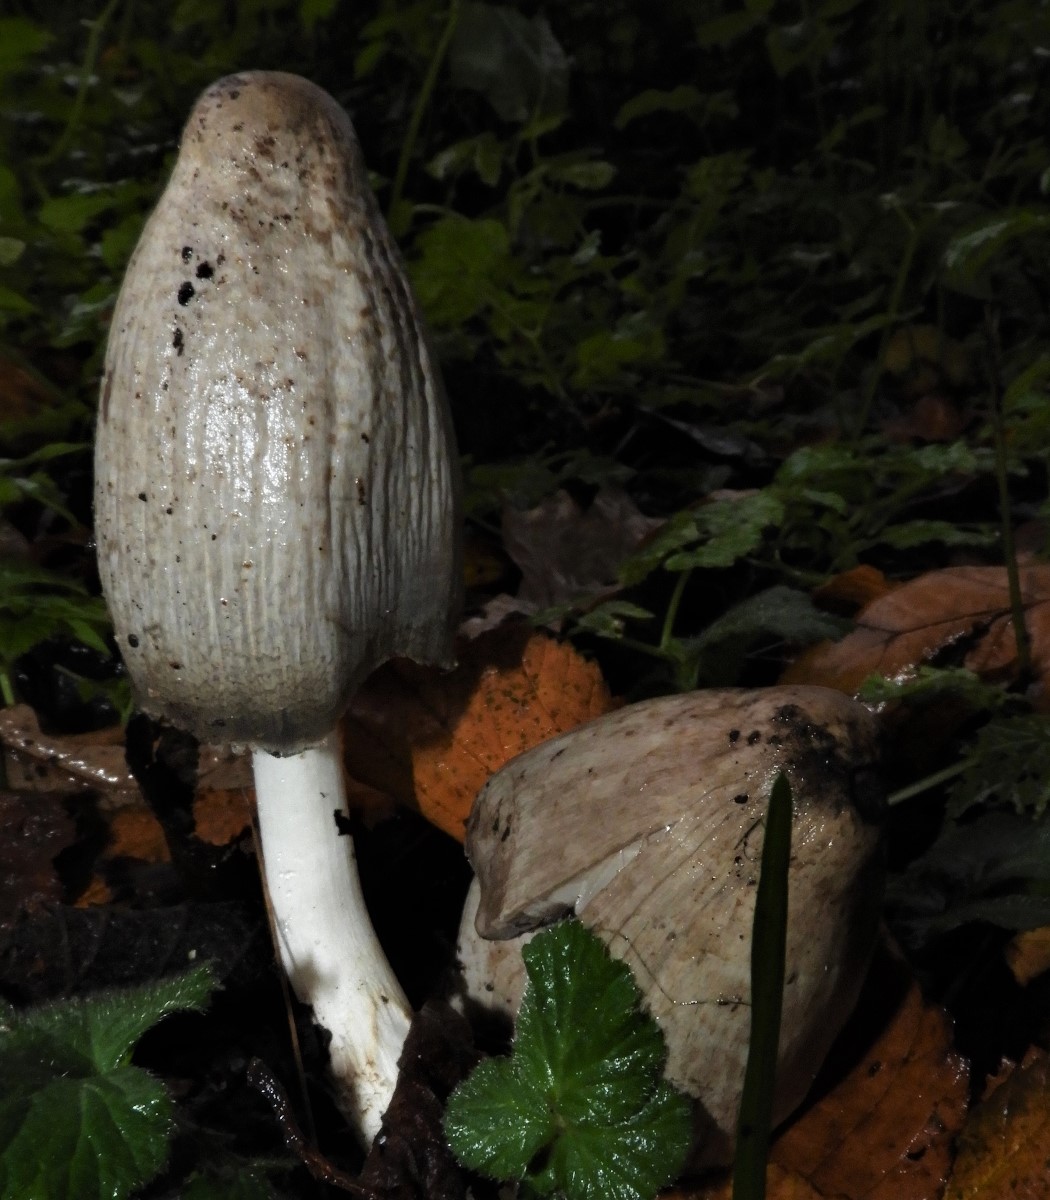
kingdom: Fungi
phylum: Basidiomycota
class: Agaricomycetes
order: Agaricales
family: Psathyrellaceae
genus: Coprinopsis
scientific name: Coprinopsis
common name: blækhat
